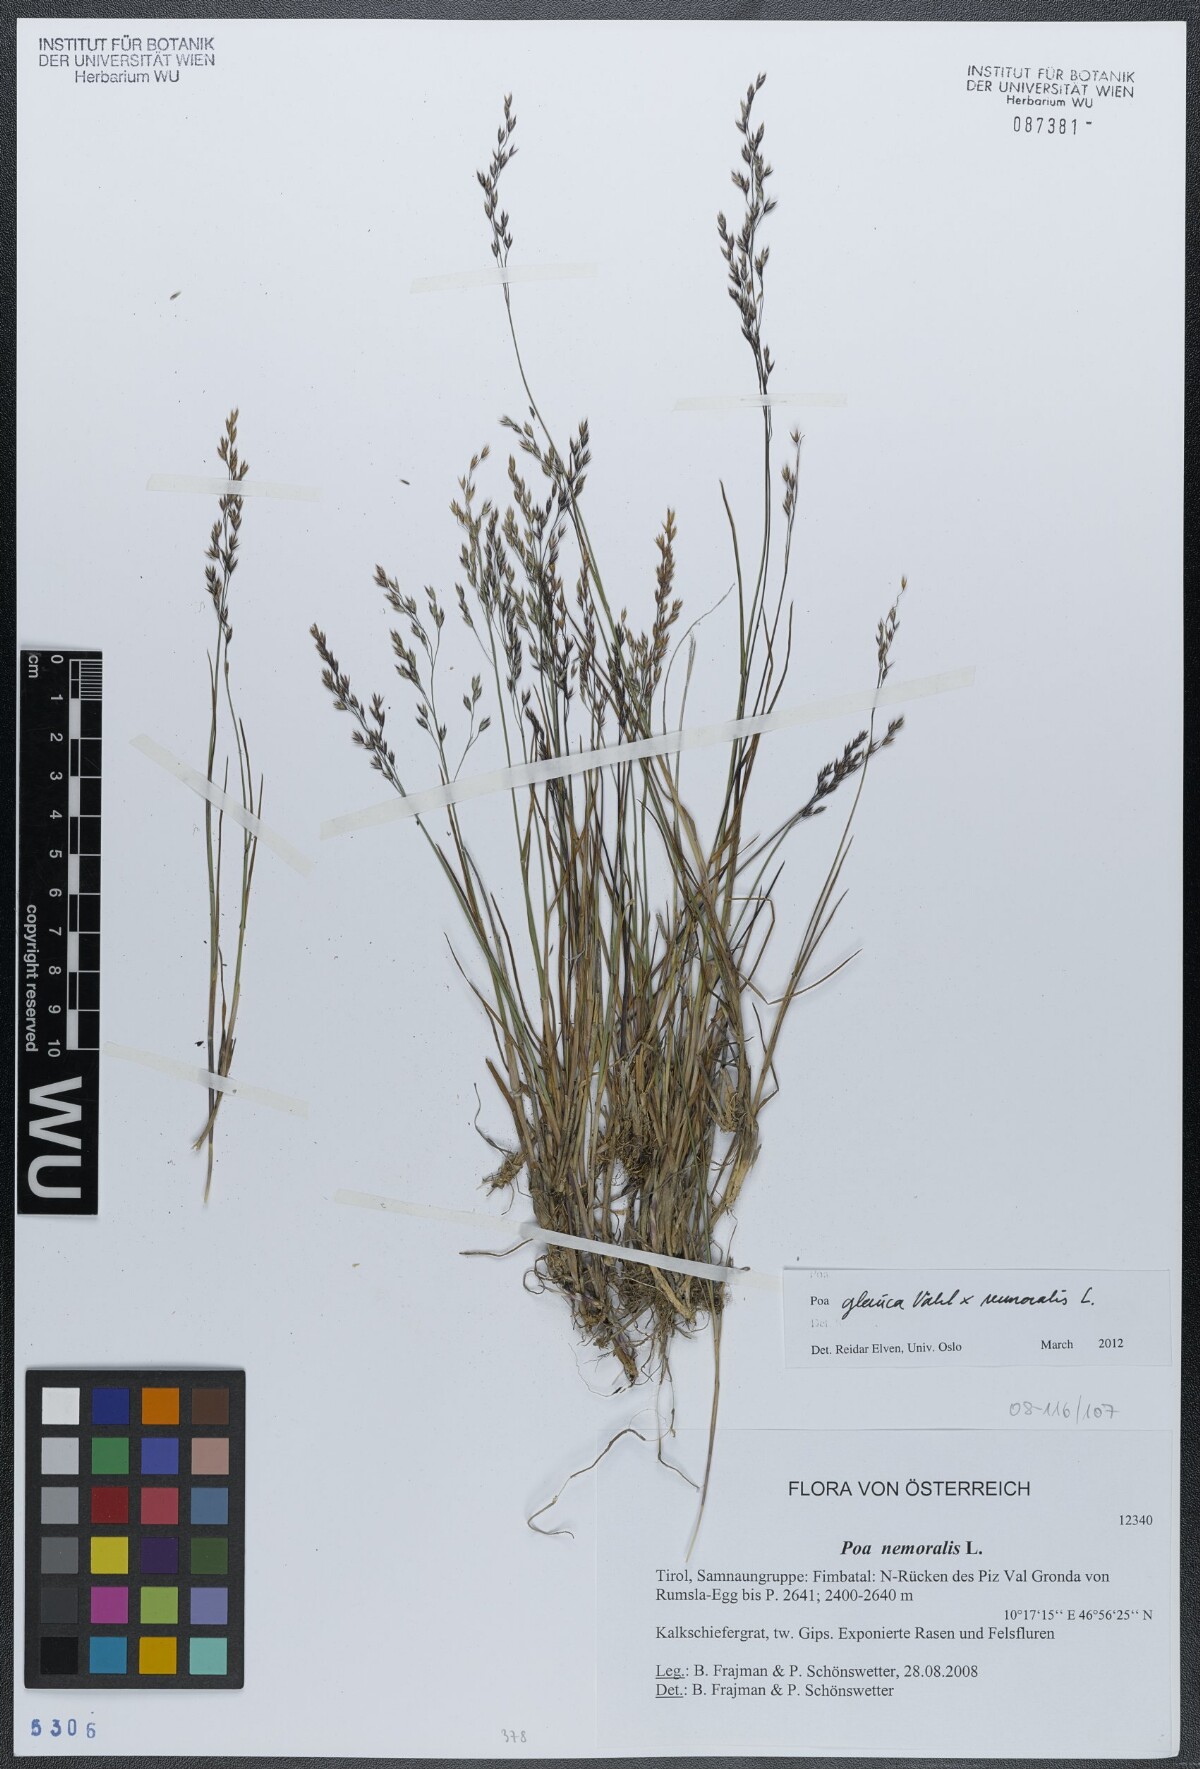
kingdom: Plantae
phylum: Tracheophyta
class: Liliopsida
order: Poales
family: Poaceae
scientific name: Poaceae
